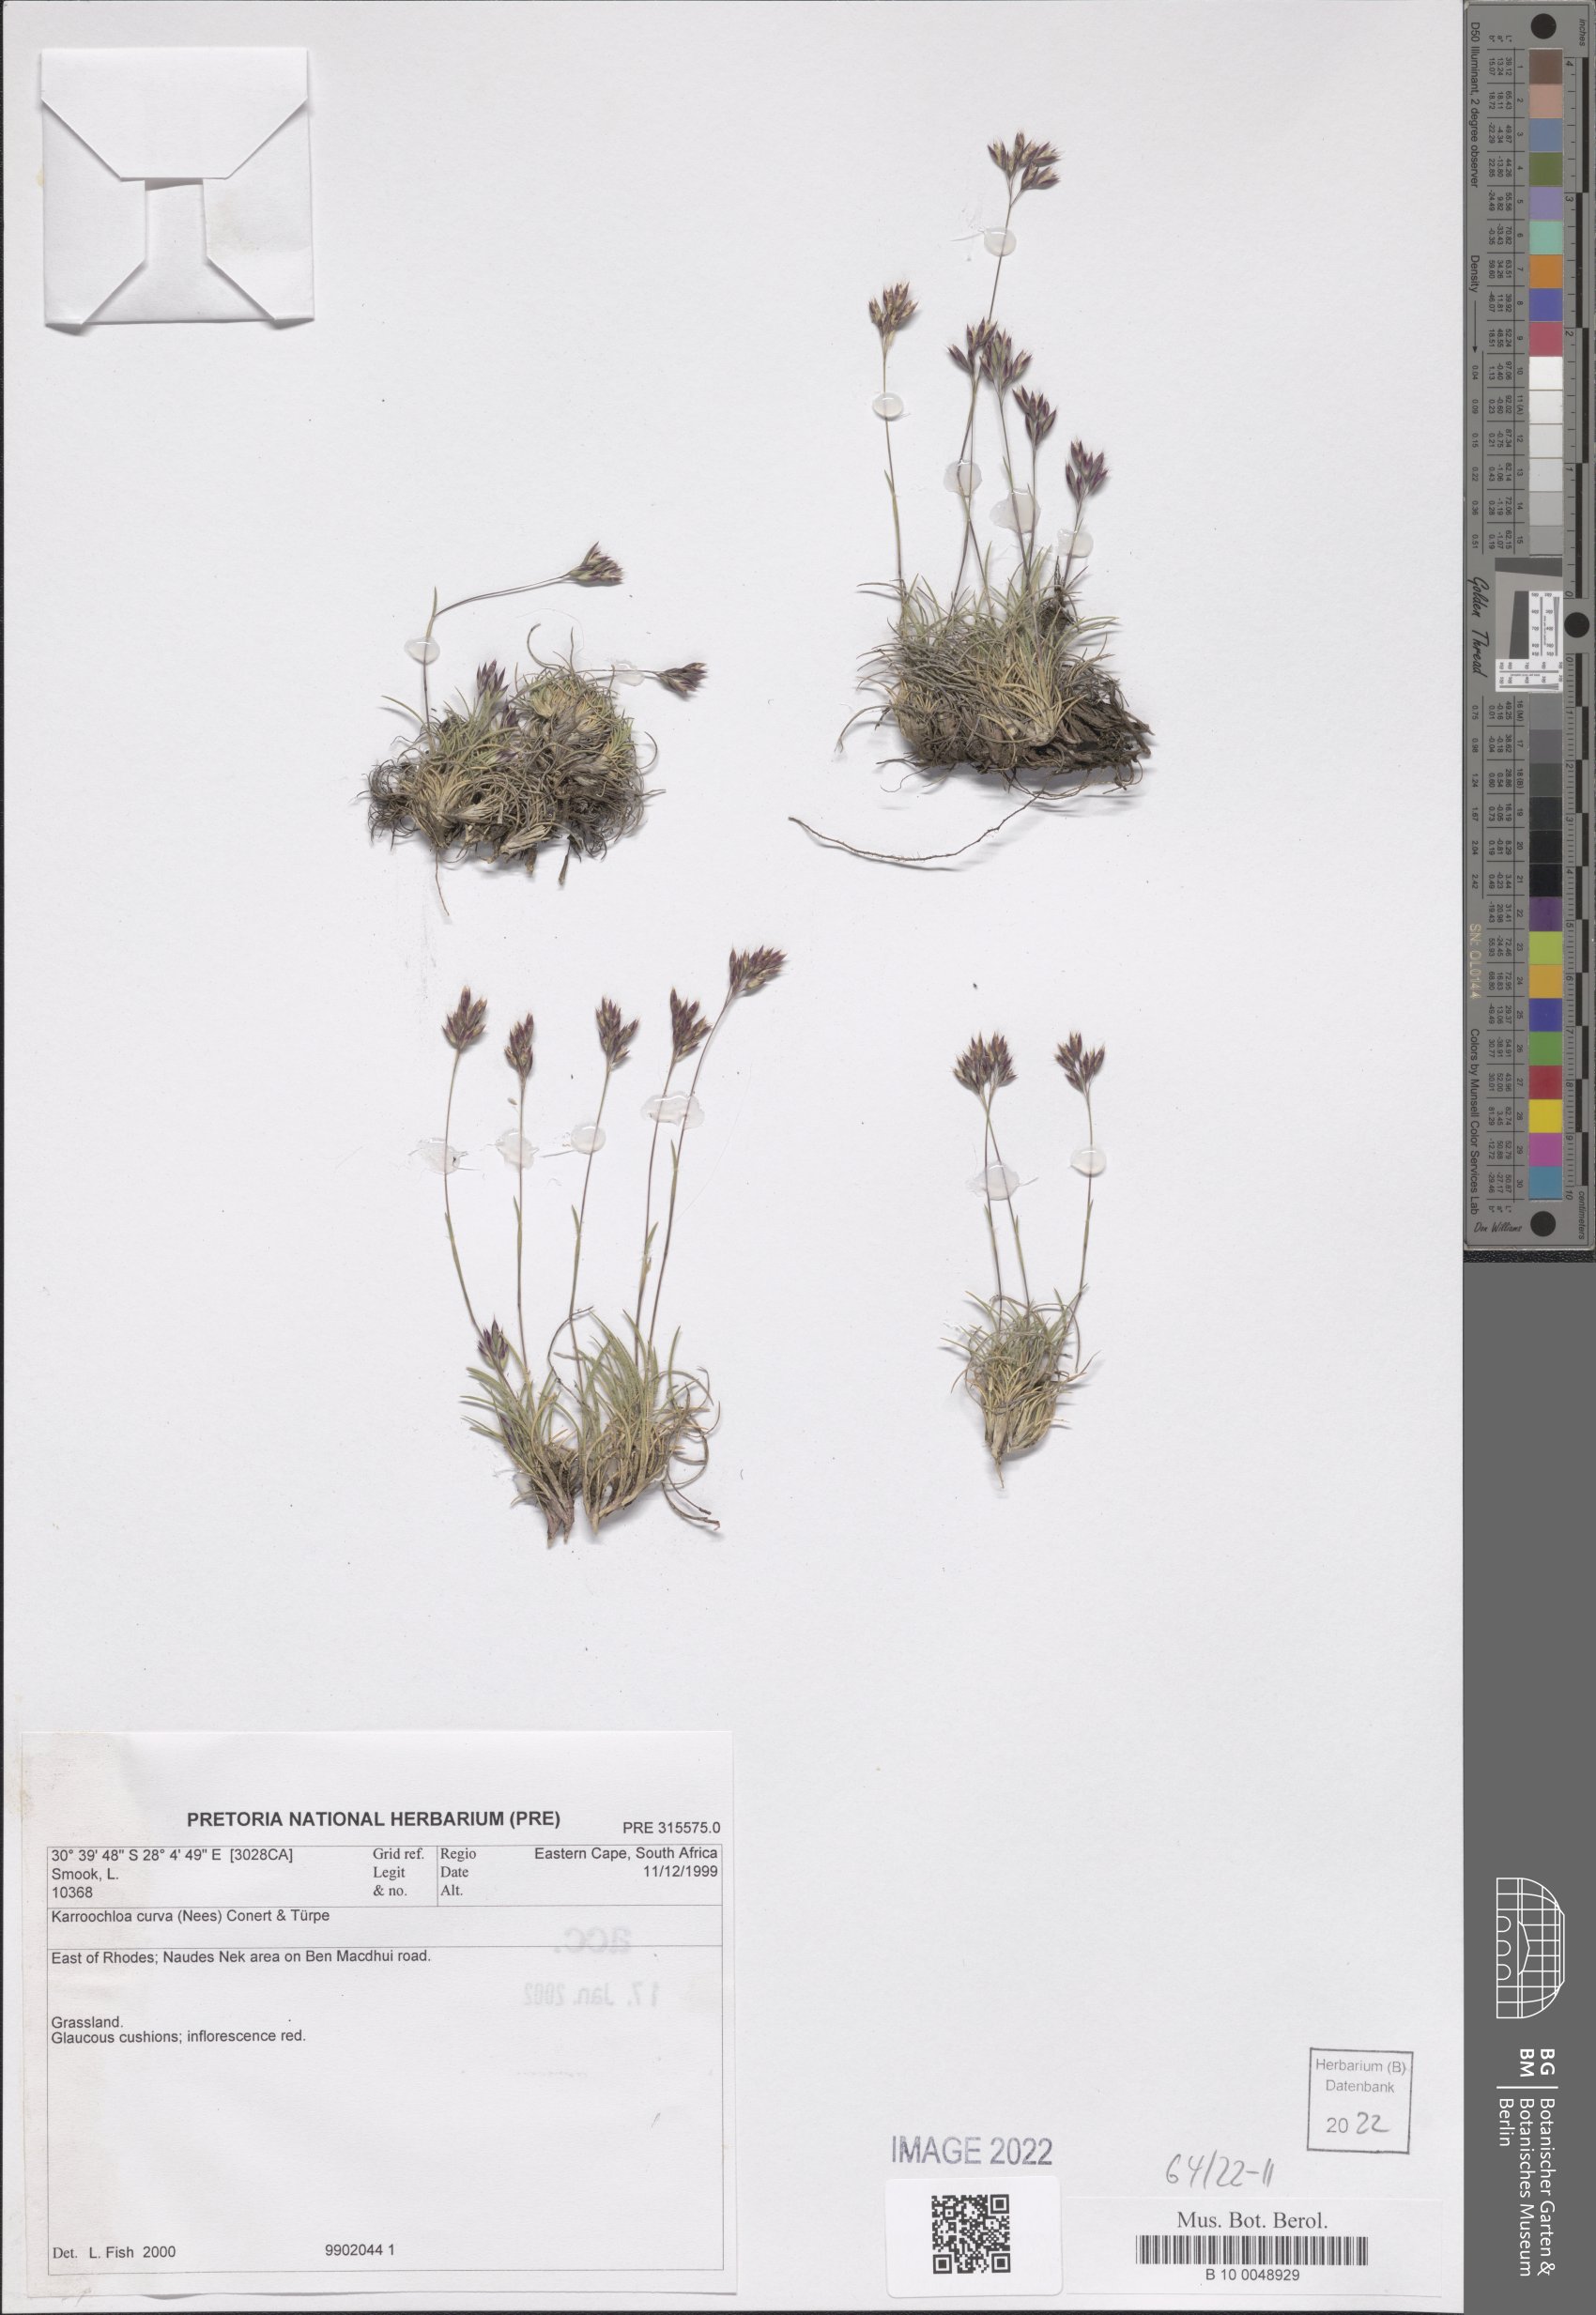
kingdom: Plantae
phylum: Tracheophyta
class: Liliopsida
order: Poales
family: Poaceae
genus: Tribolium
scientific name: Tribolium curvum
